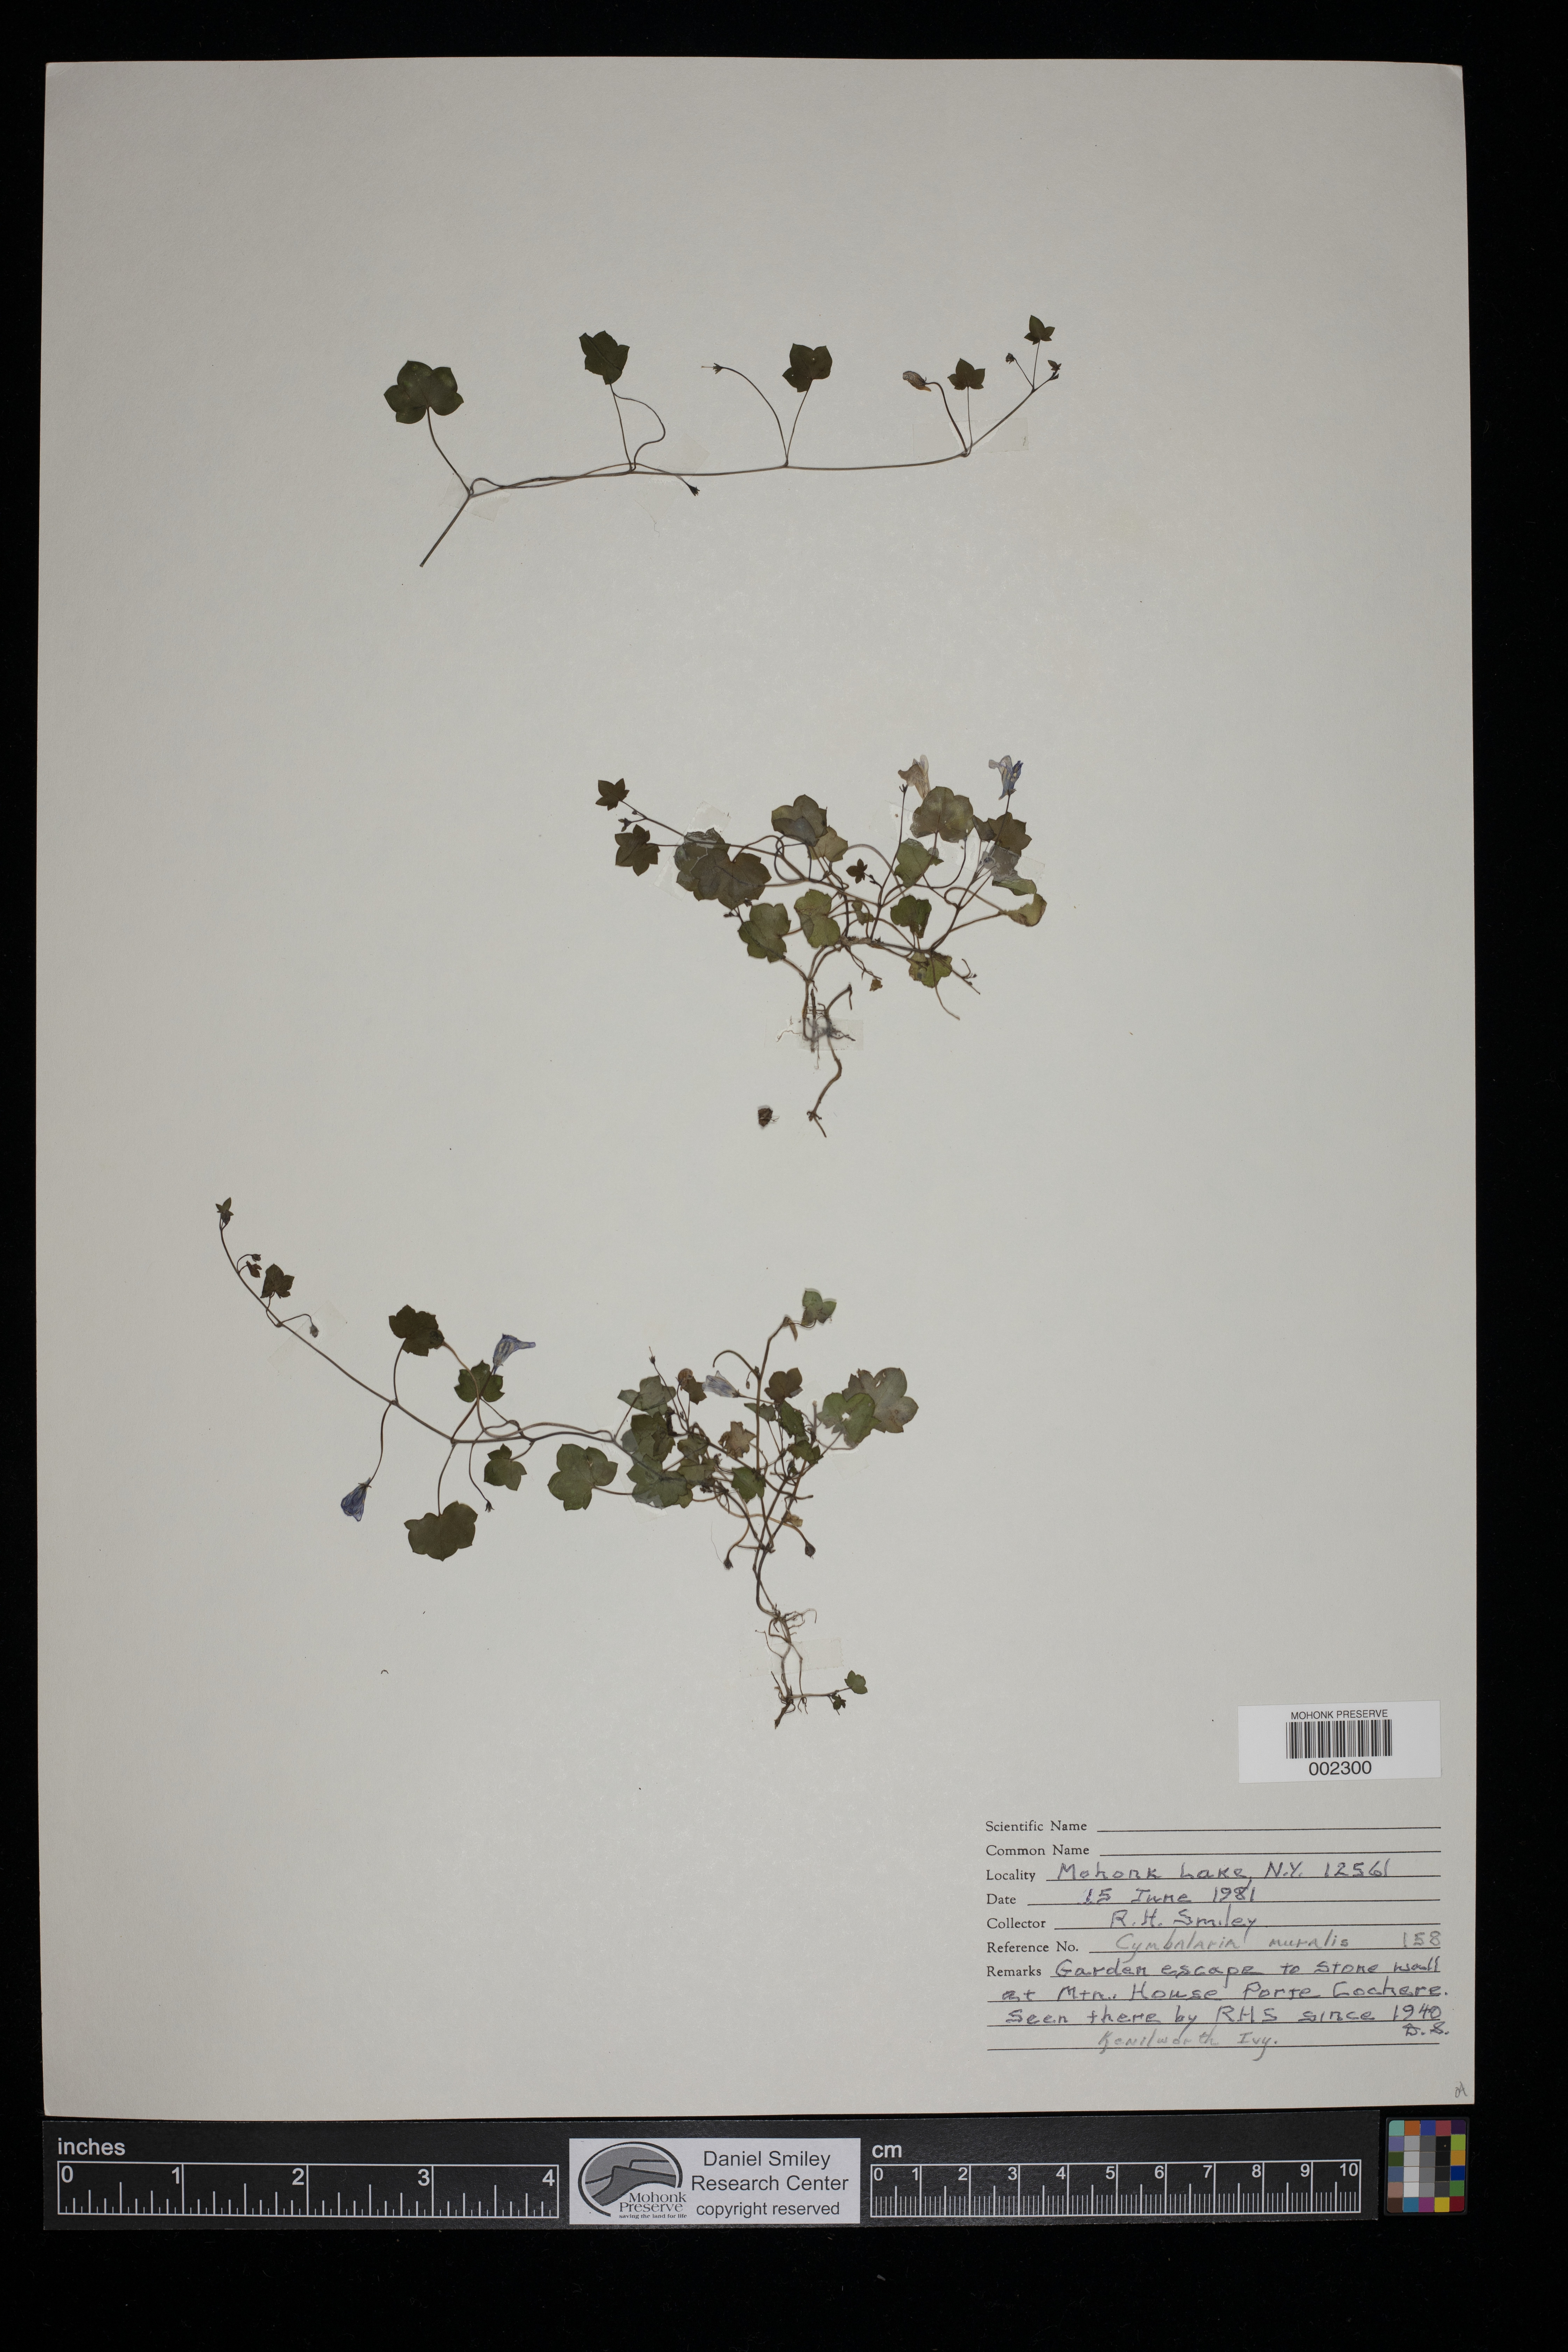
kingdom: Plantae
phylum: Tracheophyta
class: Magnoliopsida
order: Lamiales
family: Plantaginaceae
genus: Cymbalaria
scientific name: Cymbalaria muralis
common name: Ivy-leaved toadflax
